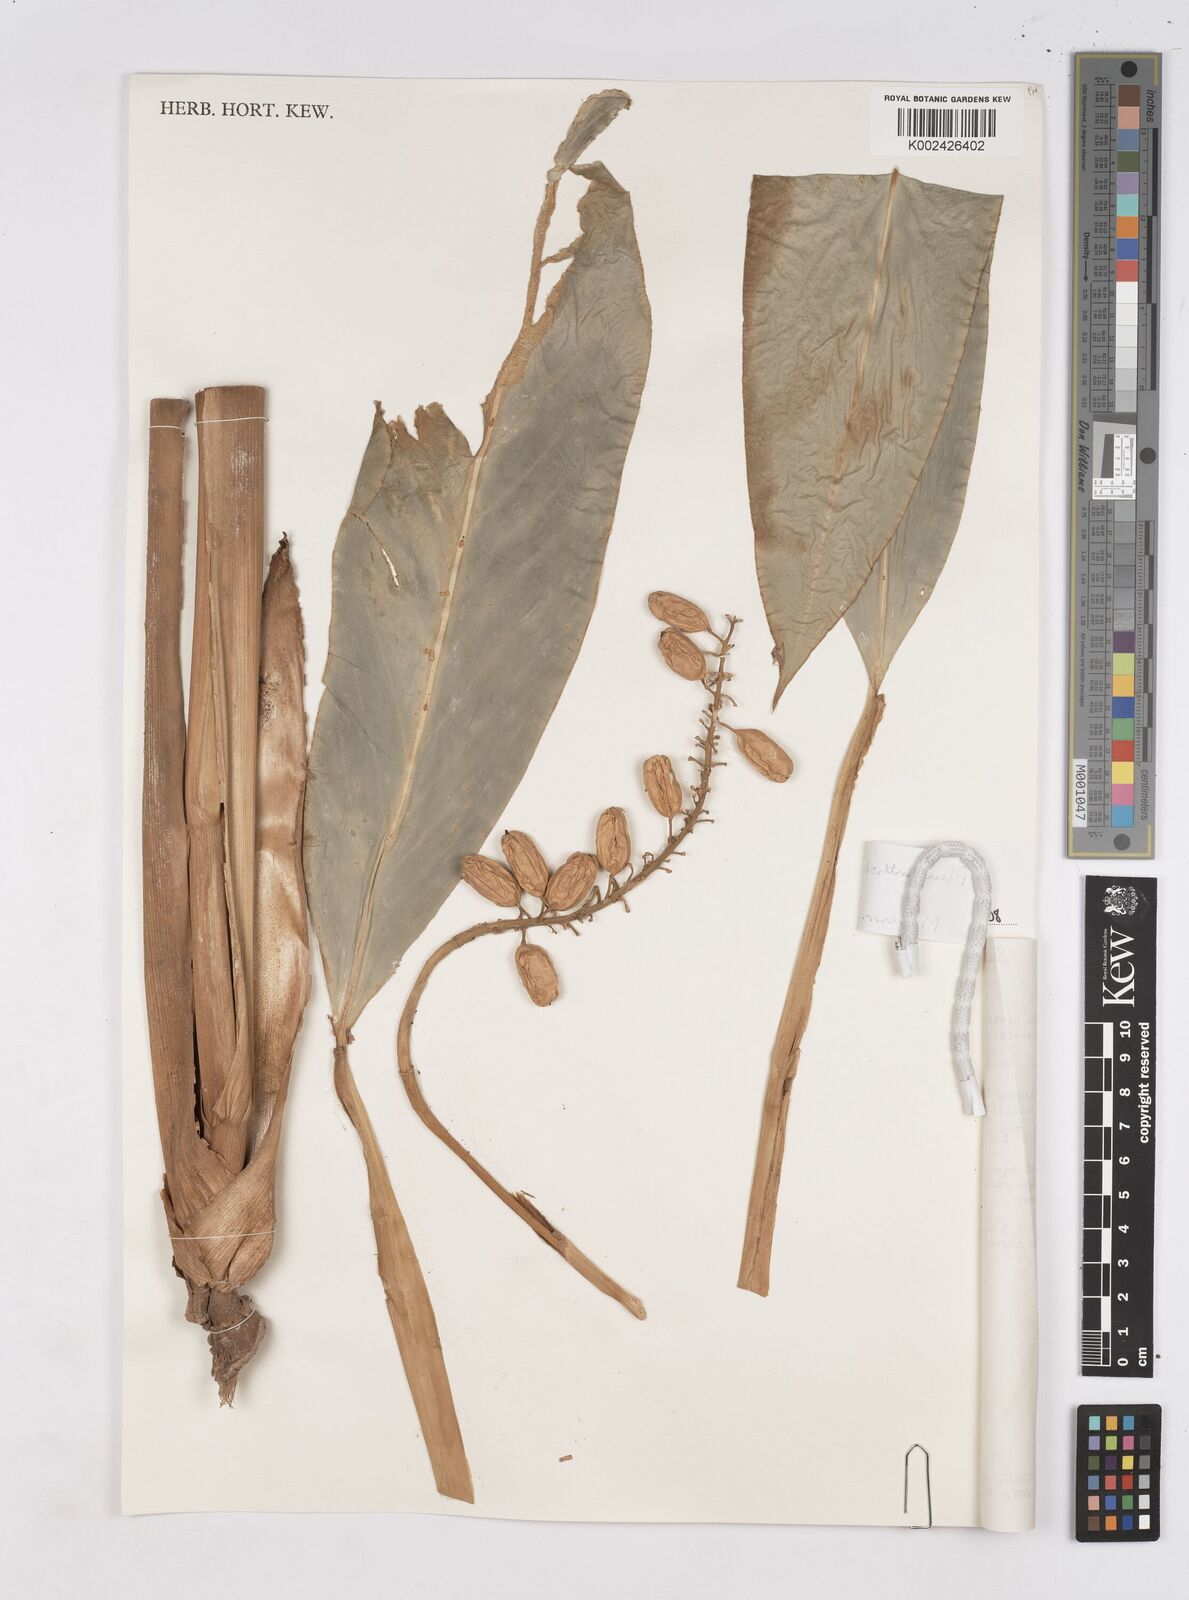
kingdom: Plantae
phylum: Tracheophyta
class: Liliopsida
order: Zingiberales
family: Zingiberaceae
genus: Pleuranthodium
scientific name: Pleuranthodium
